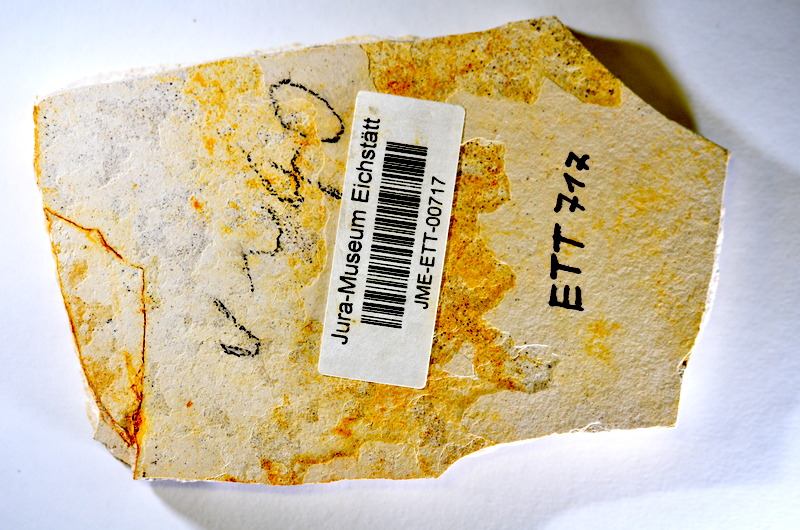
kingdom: Animalia
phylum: Chordata
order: Salmoniformes
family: Orthogonikleithridae
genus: Orthogonikleithrus
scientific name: Orthogonikleithrus hoelli
